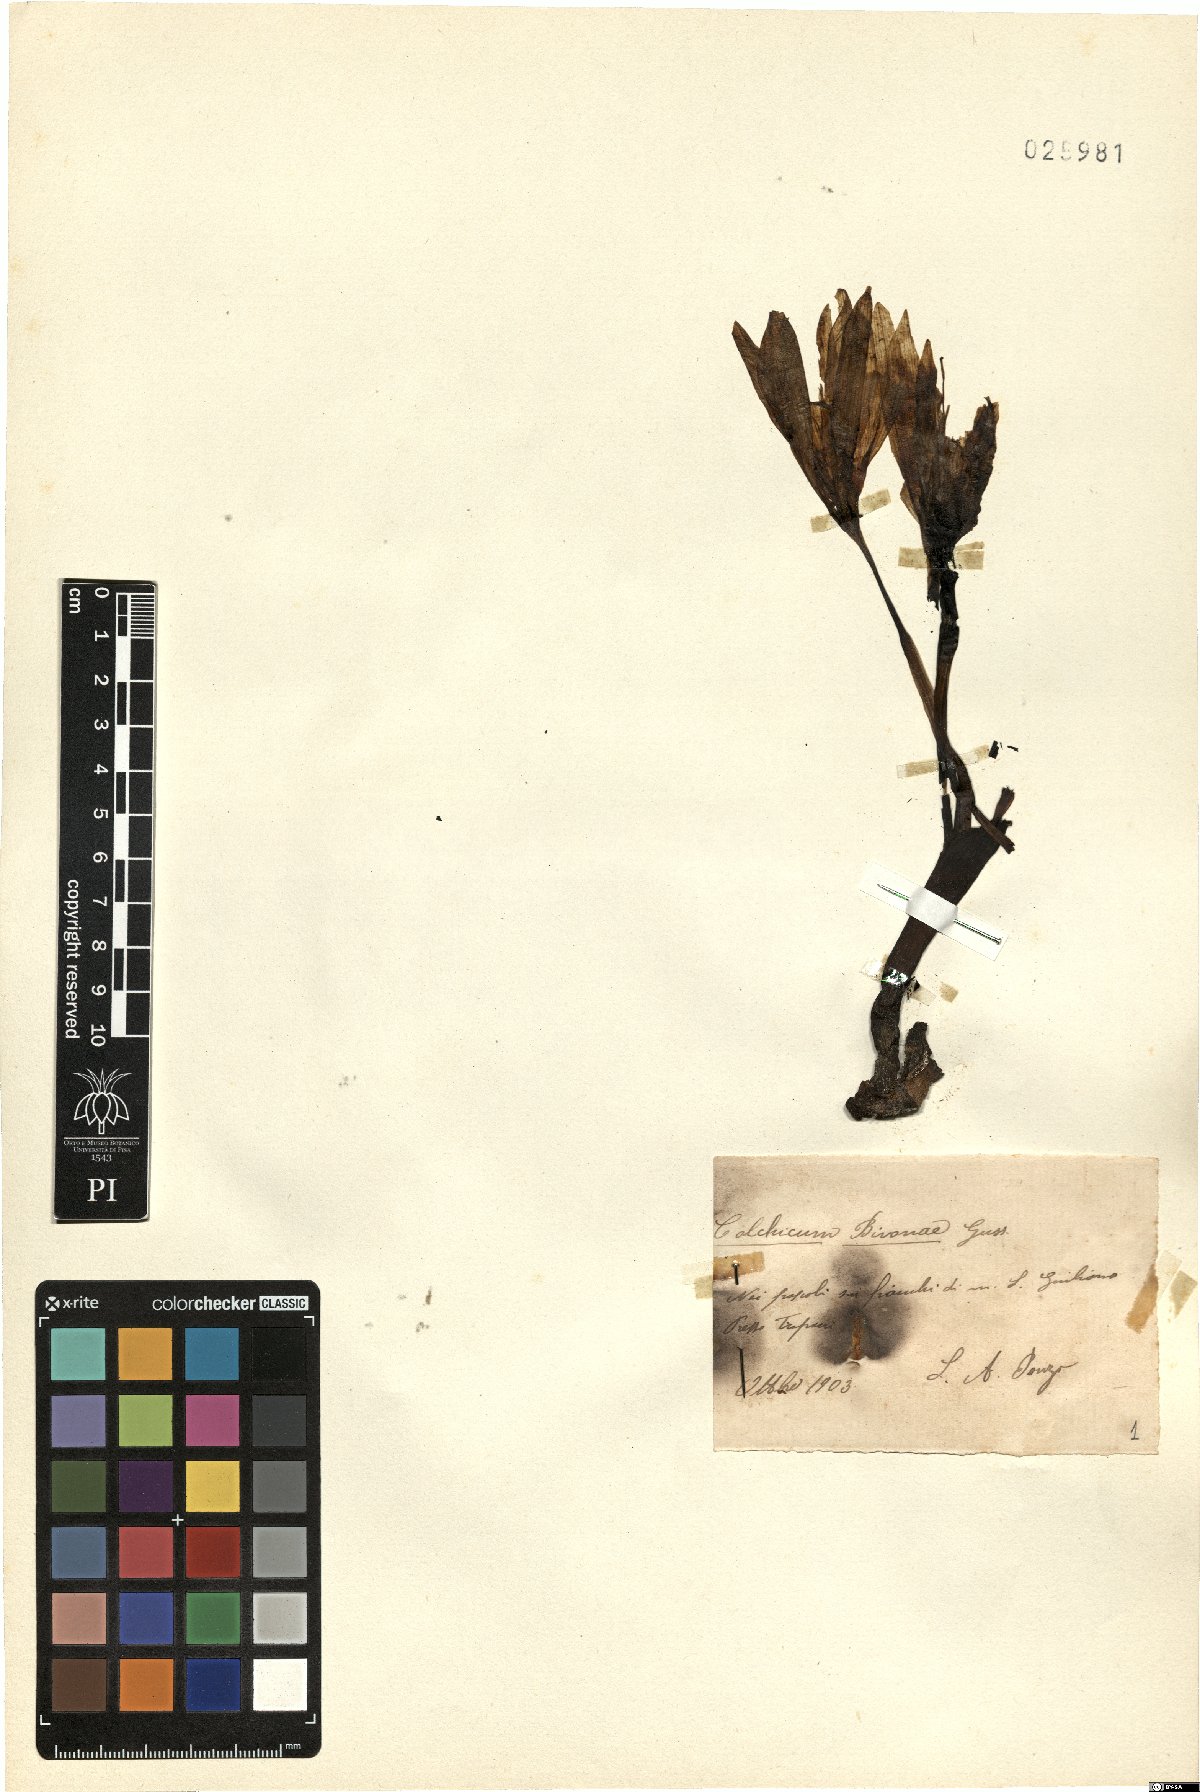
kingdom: Plantae
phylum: Tracheophyta
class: Liliopsida
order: Liliales
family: Colchicaceae
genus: Colchicum
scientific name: Colchicum bivonae
